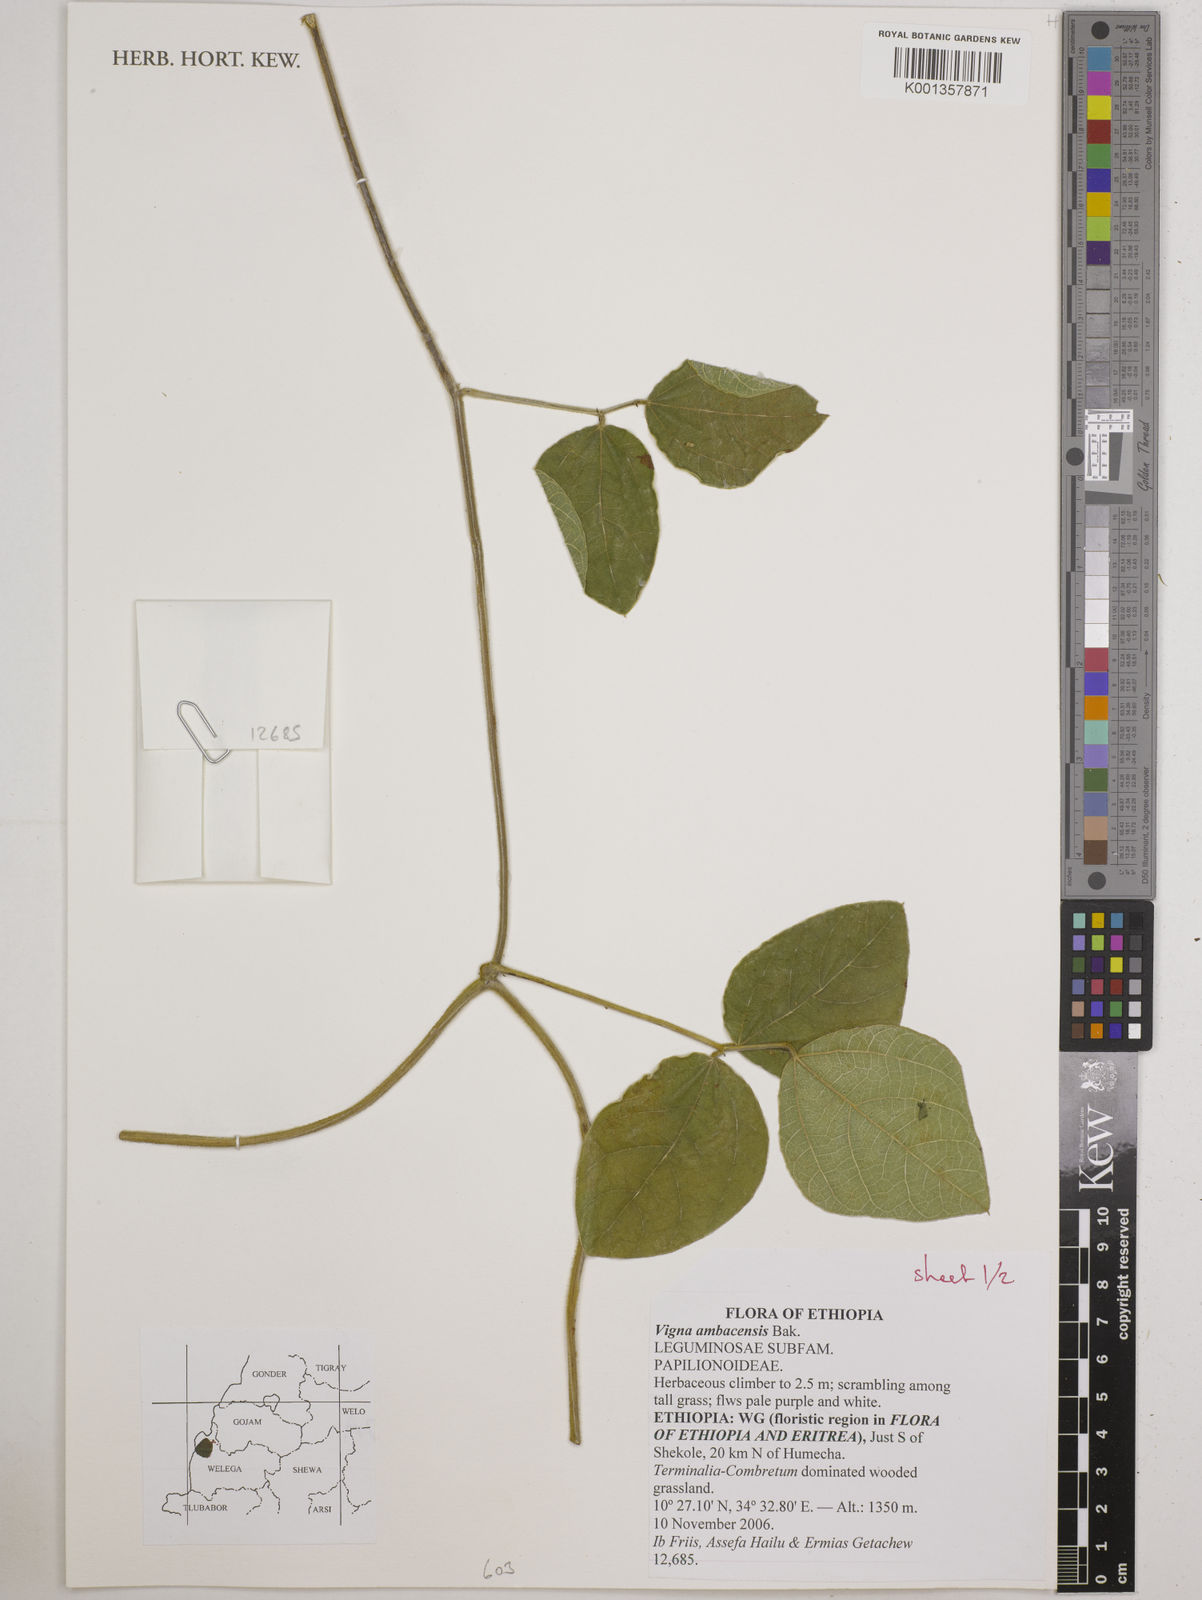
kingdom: Plantae
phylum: Tracheophyta
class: Magnoliopsida
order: Fabales
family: Fabaceae
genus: Vigna
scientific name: Vigna ambacensis
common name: Tsarkiyan zomo
